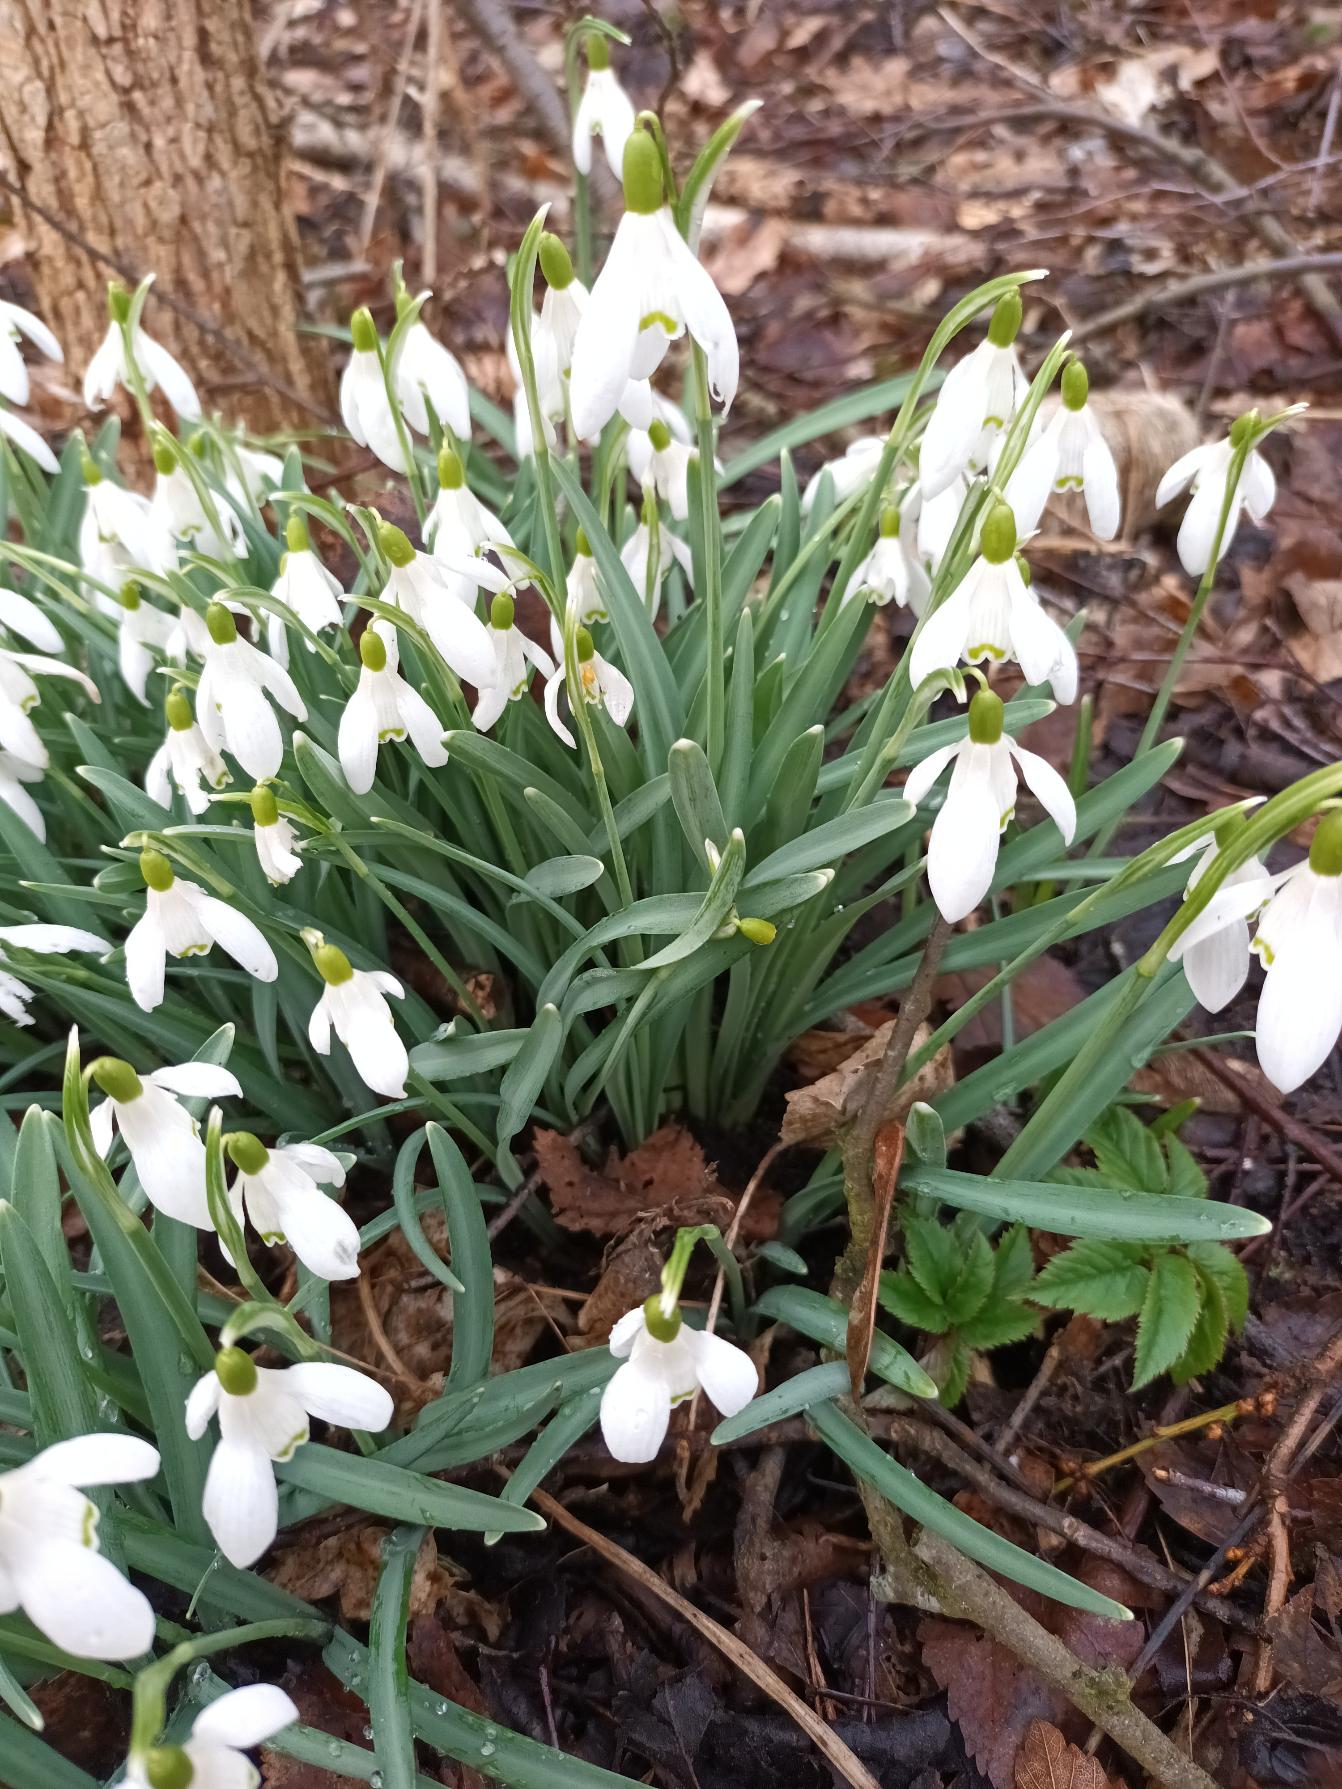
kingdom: Plantae
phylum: Tracheophyta
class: Liliopsida
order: Asparagales
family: Amaryllidaceae
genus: Galanthus
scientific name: Galanthus nivalis
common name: Vintergæk
